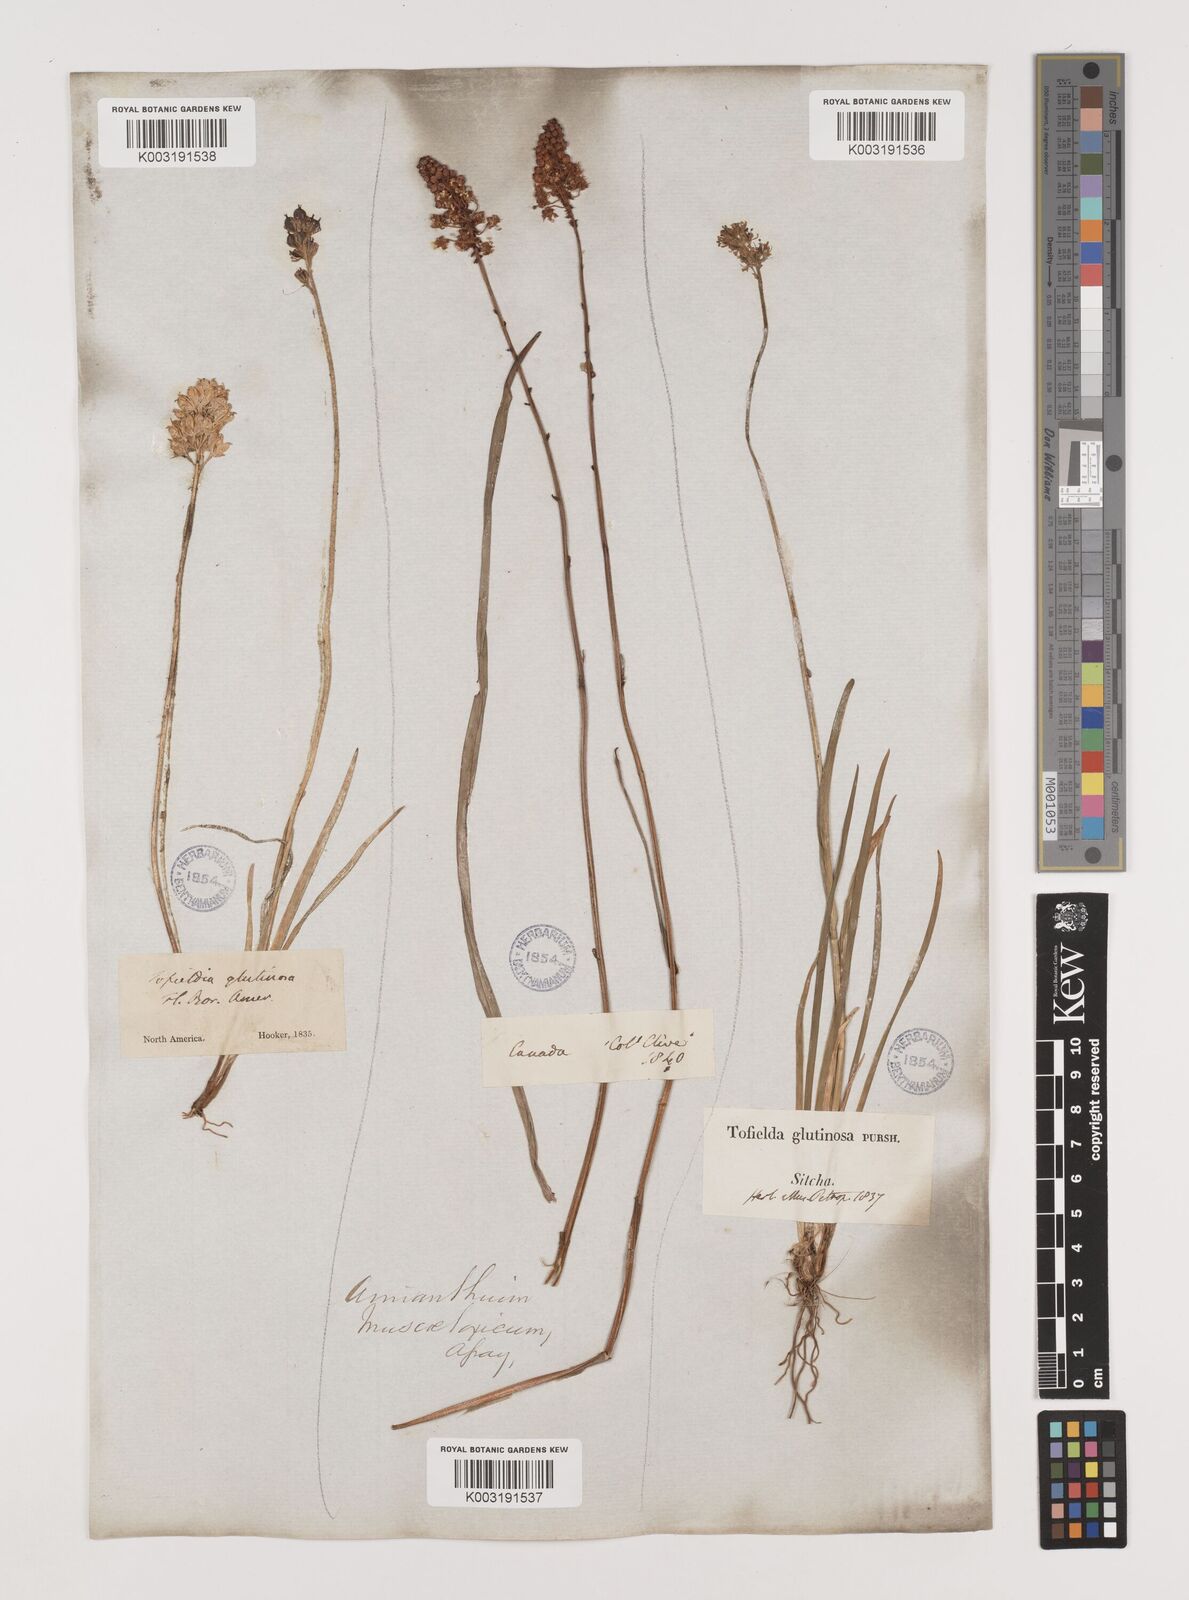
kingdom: Plantae
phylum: Tracheophyta
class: Liliopsida
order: Alismatales
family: Tofieldiaceae
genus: Triantha
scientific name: Triantha occidentalis
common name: Western false asphodel
